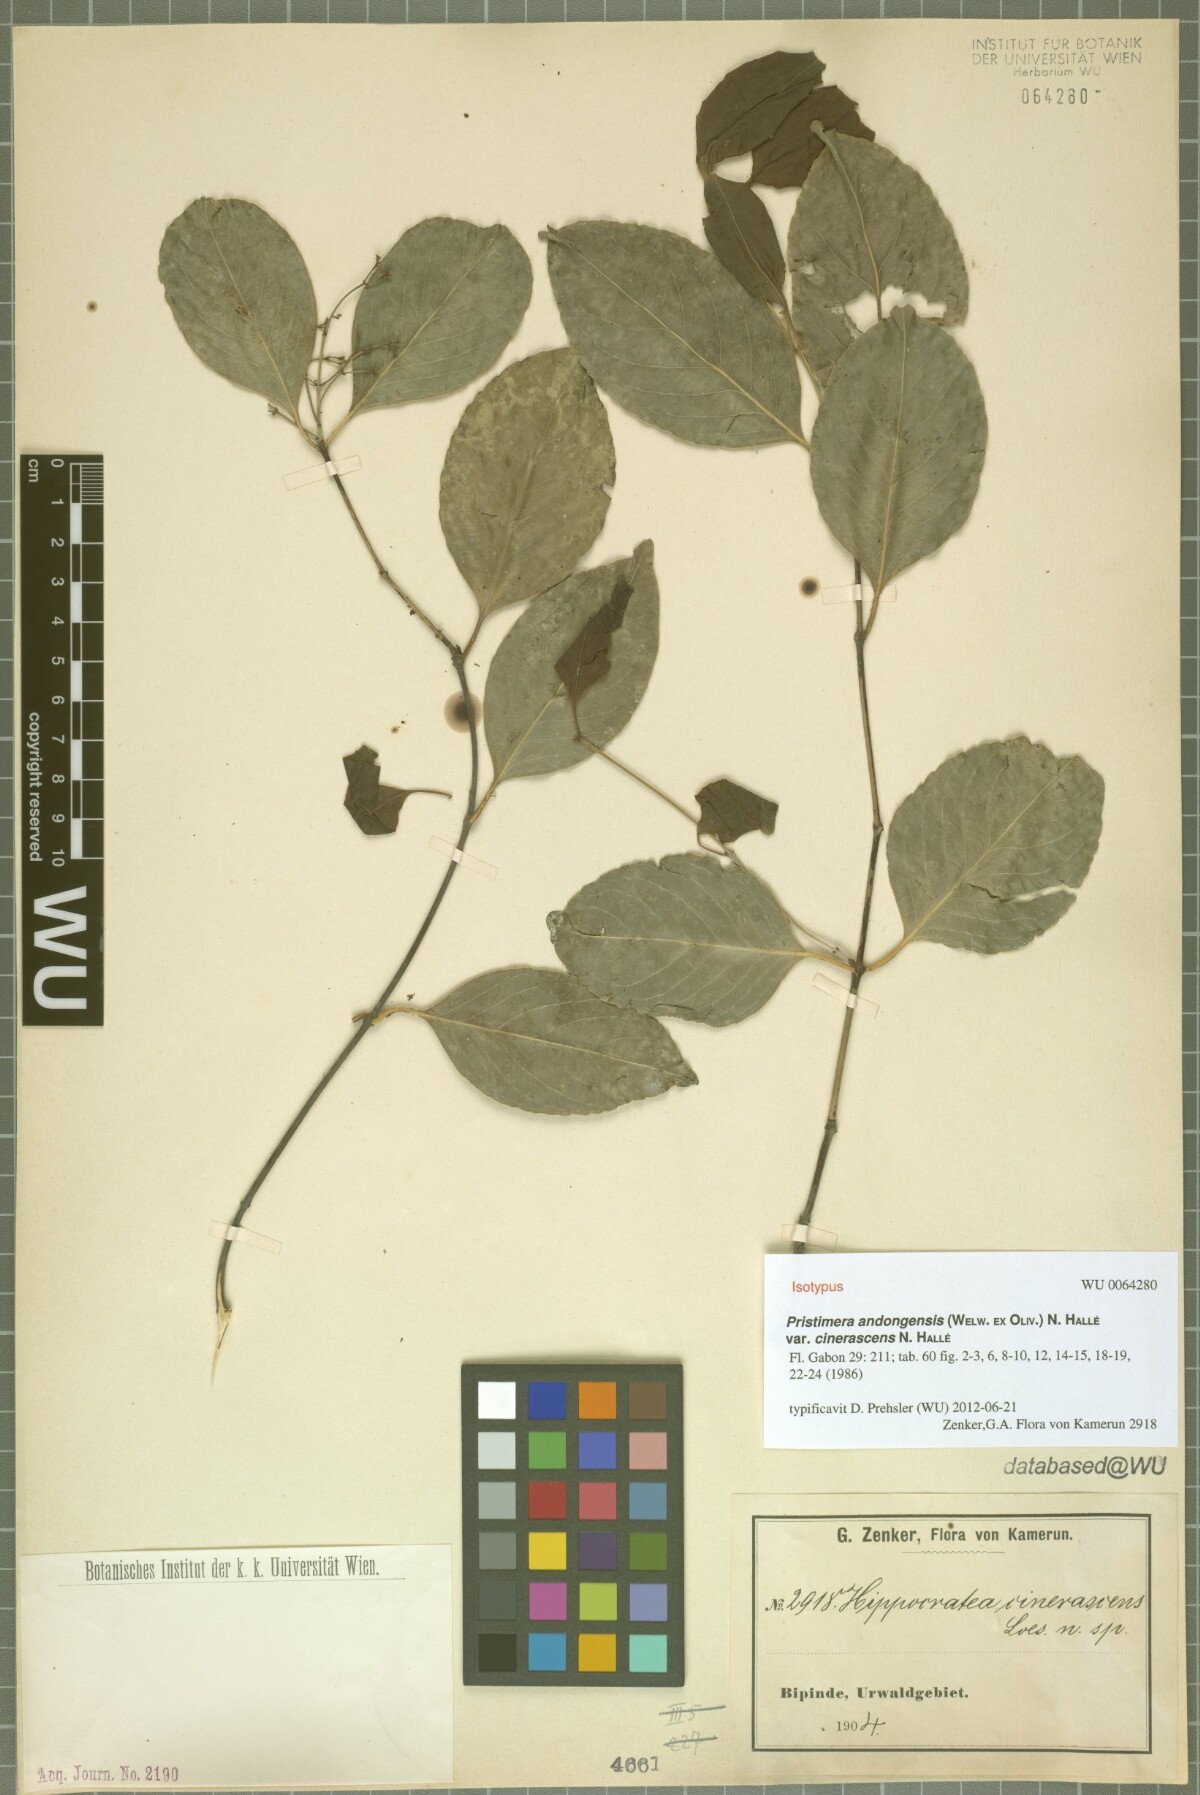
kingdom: Plantae
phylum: Tracheophyta
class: Magnoliopsida
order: Celastrales
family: Celastraceae
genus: Pristimera
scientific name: Pristimera andongensis
